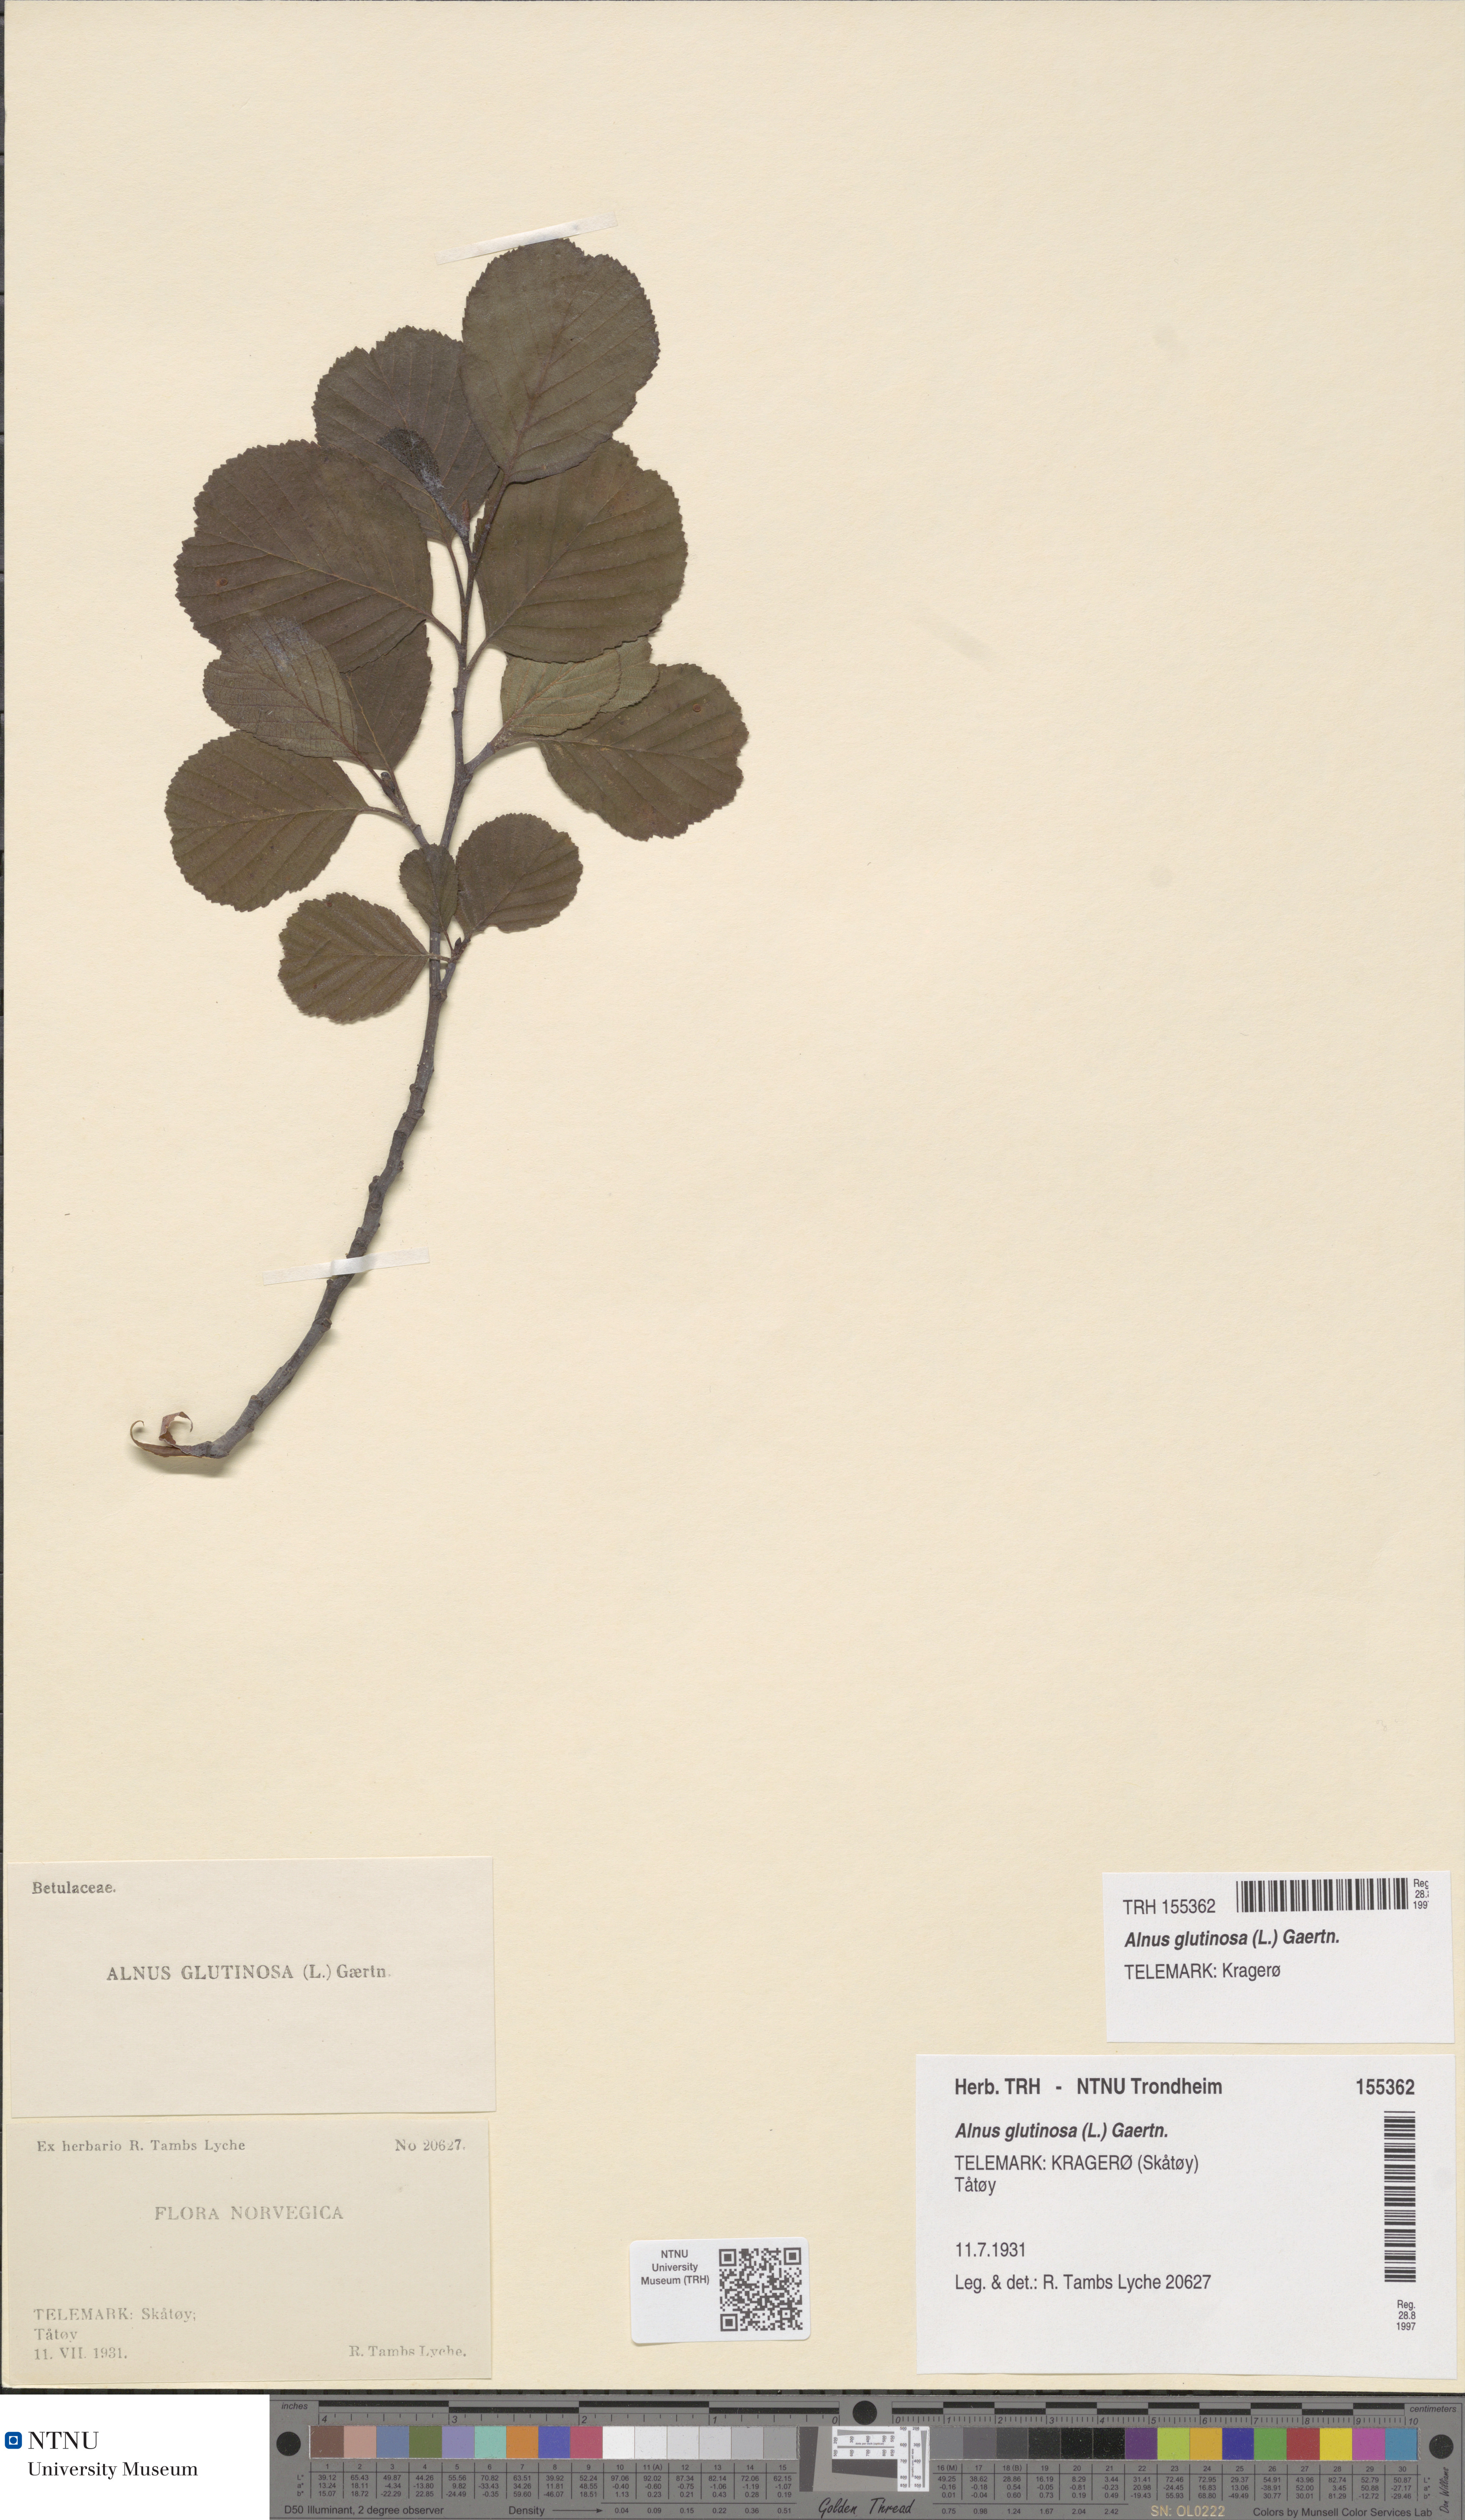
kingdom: Plantae
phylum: Tracheophyta
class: Magnoliopsida
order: Fagales
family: Betulaceae
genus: Alnus
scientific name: Alnus glutinosa
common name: Black alder
